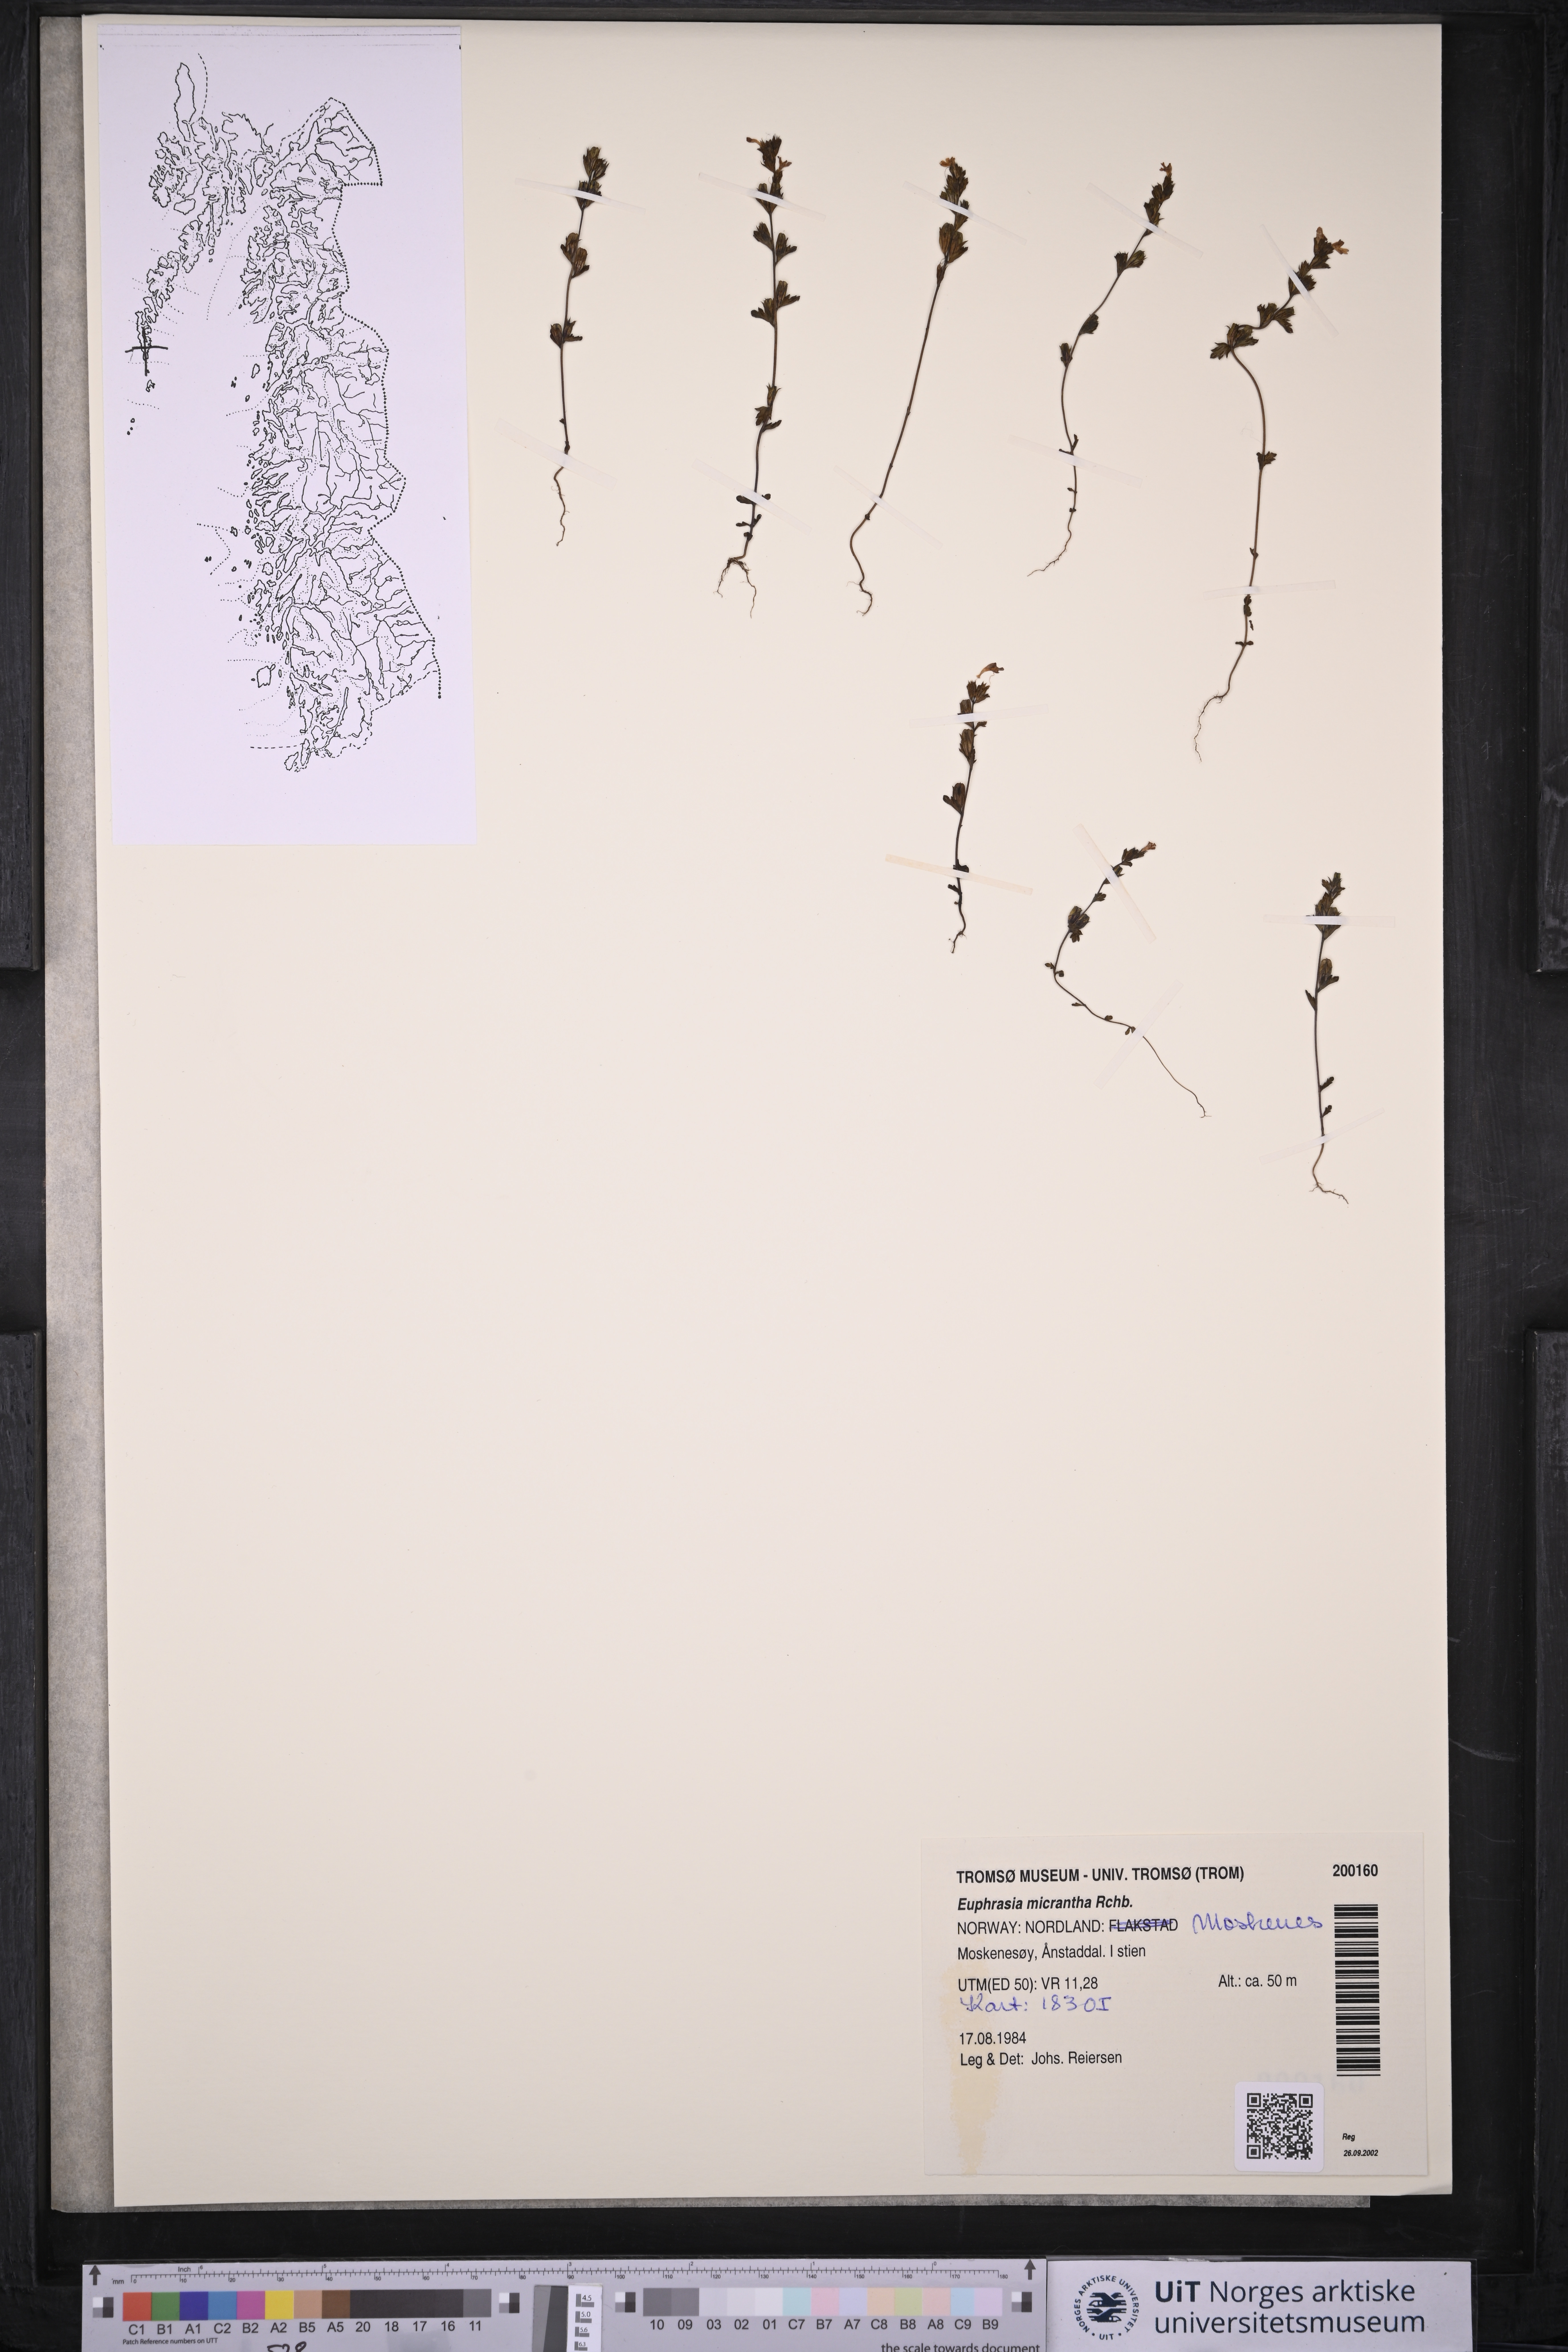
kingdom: Plantae
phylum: Tracheophyta
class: Magnoliopsida
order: Lamiales
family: Orobanchaceae
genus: Euphrasia
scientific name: Euphrasia micrantha
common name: Northern eyebright
